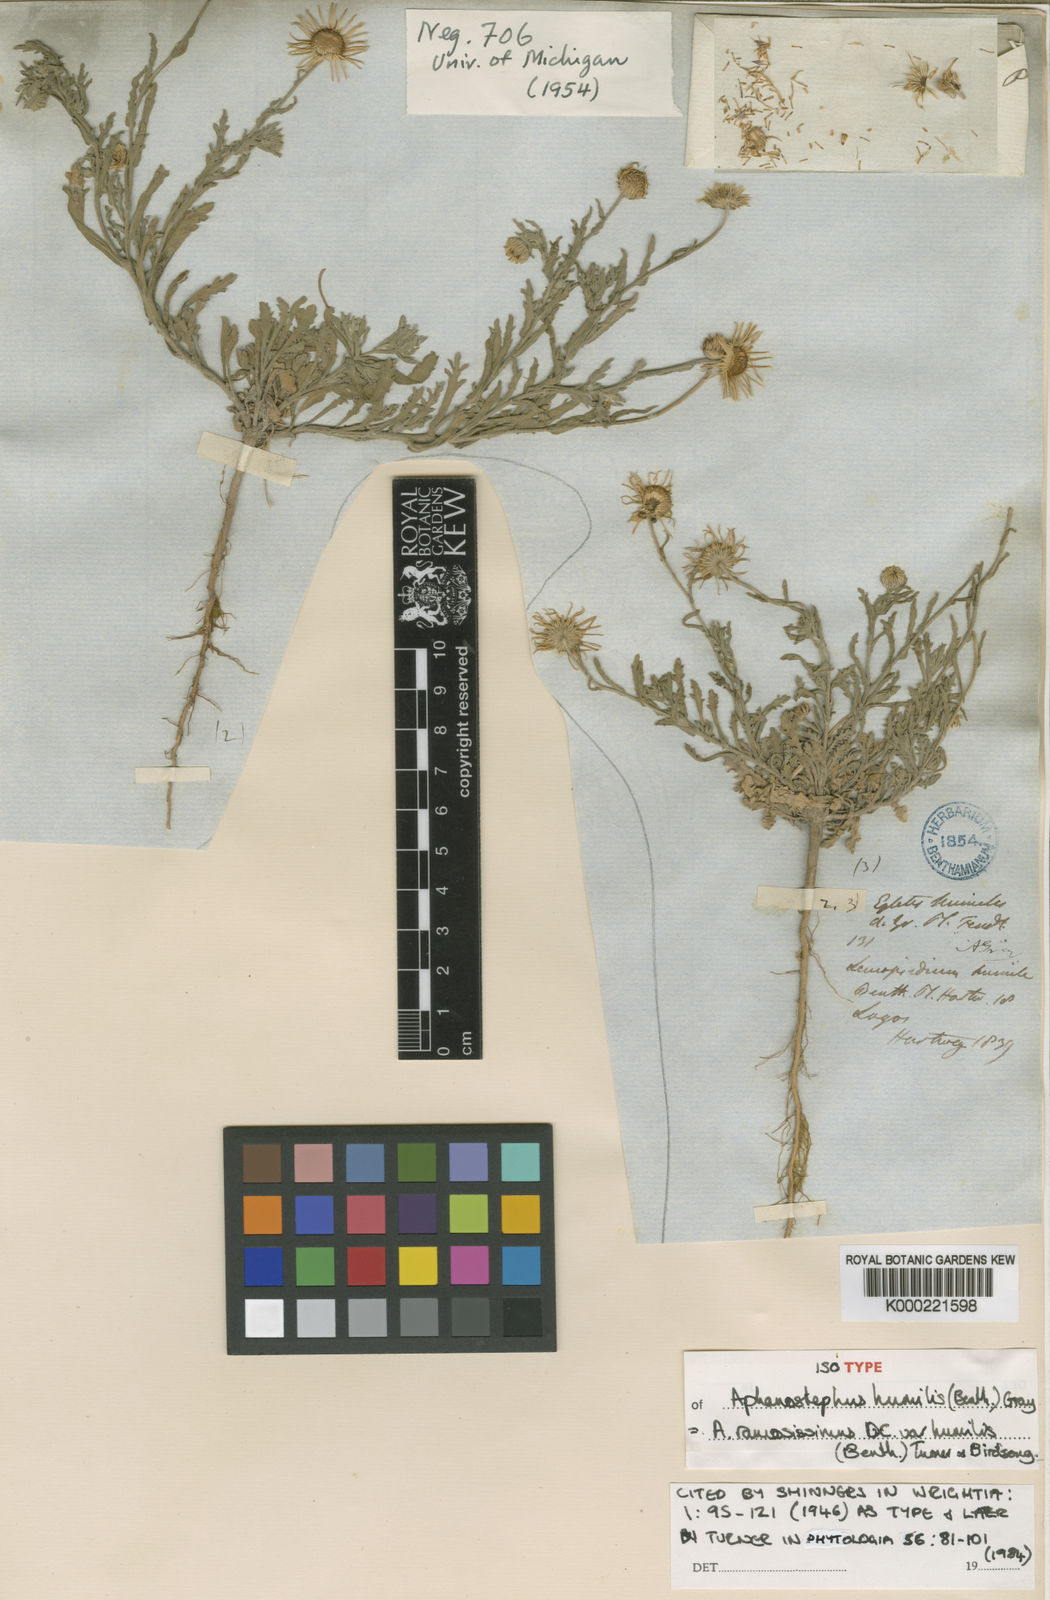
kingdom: Plantae
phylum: Tracheophyta
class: Magnoliopsida
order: Asterales
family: Asteraceae
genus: Aphanostephus
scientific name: Aphanostephus ramosissimus
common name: Plains lazy daisy
